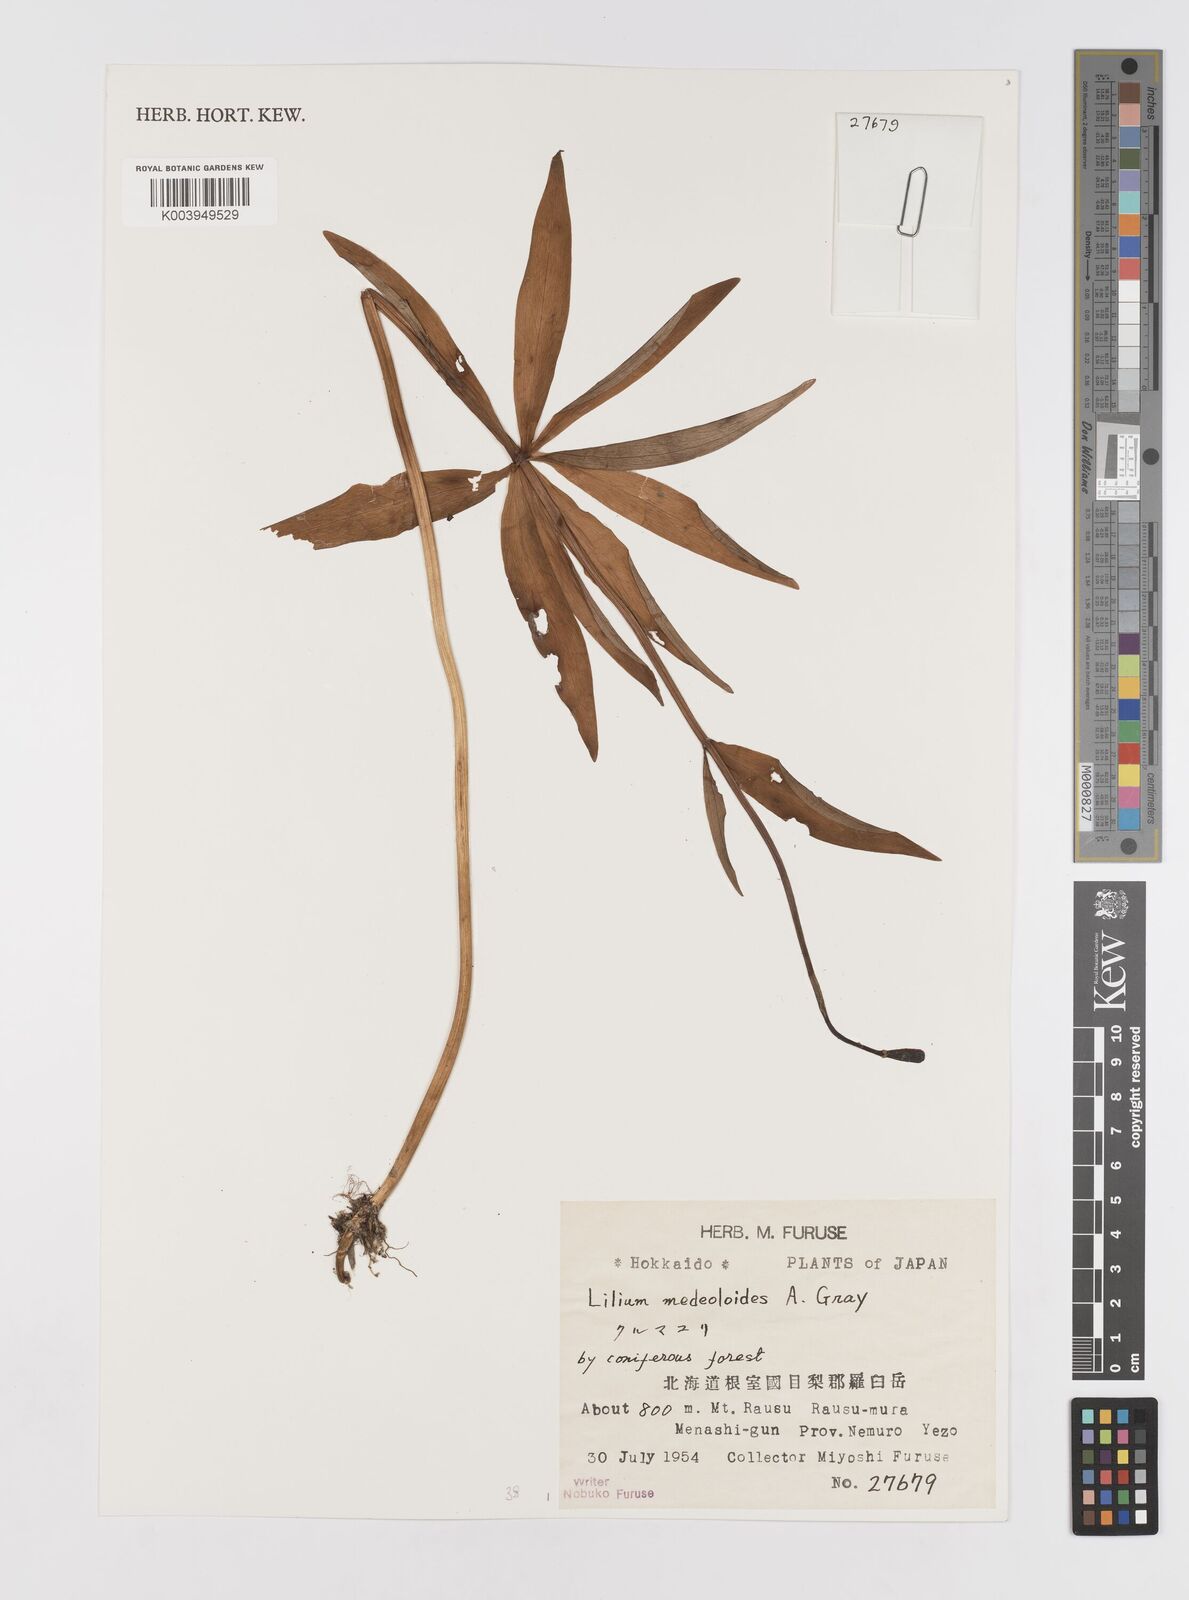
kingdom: Plantae
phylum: Tracheophyta
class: Liliopsida
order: Liliales
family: Liliaceae
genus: Lilium
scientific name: Lilium medeoloides
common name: Wheel lily
